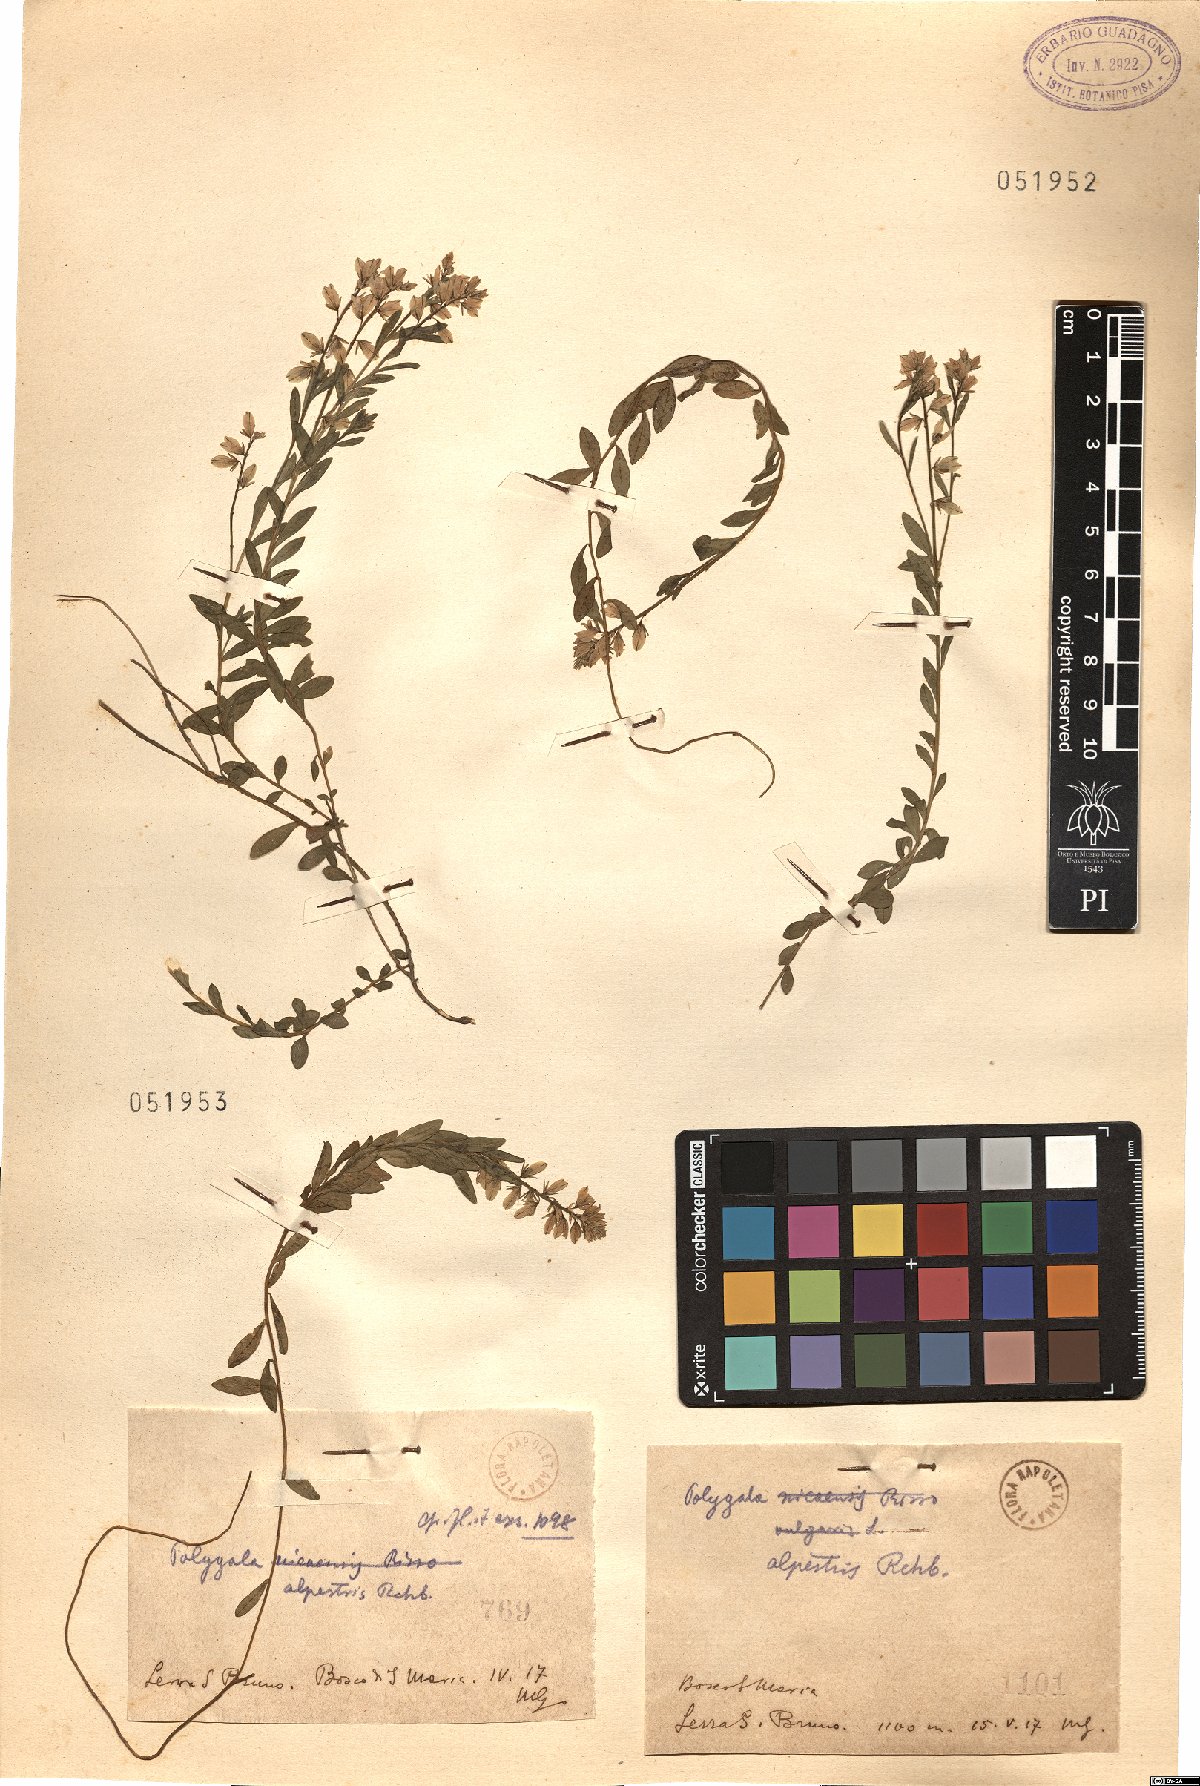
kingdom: Plantae
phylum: Tracheophyta
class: Magnoliopsida
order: Fabales
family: Polygalaceae
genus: Polygala
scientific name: Polygala alpestris
